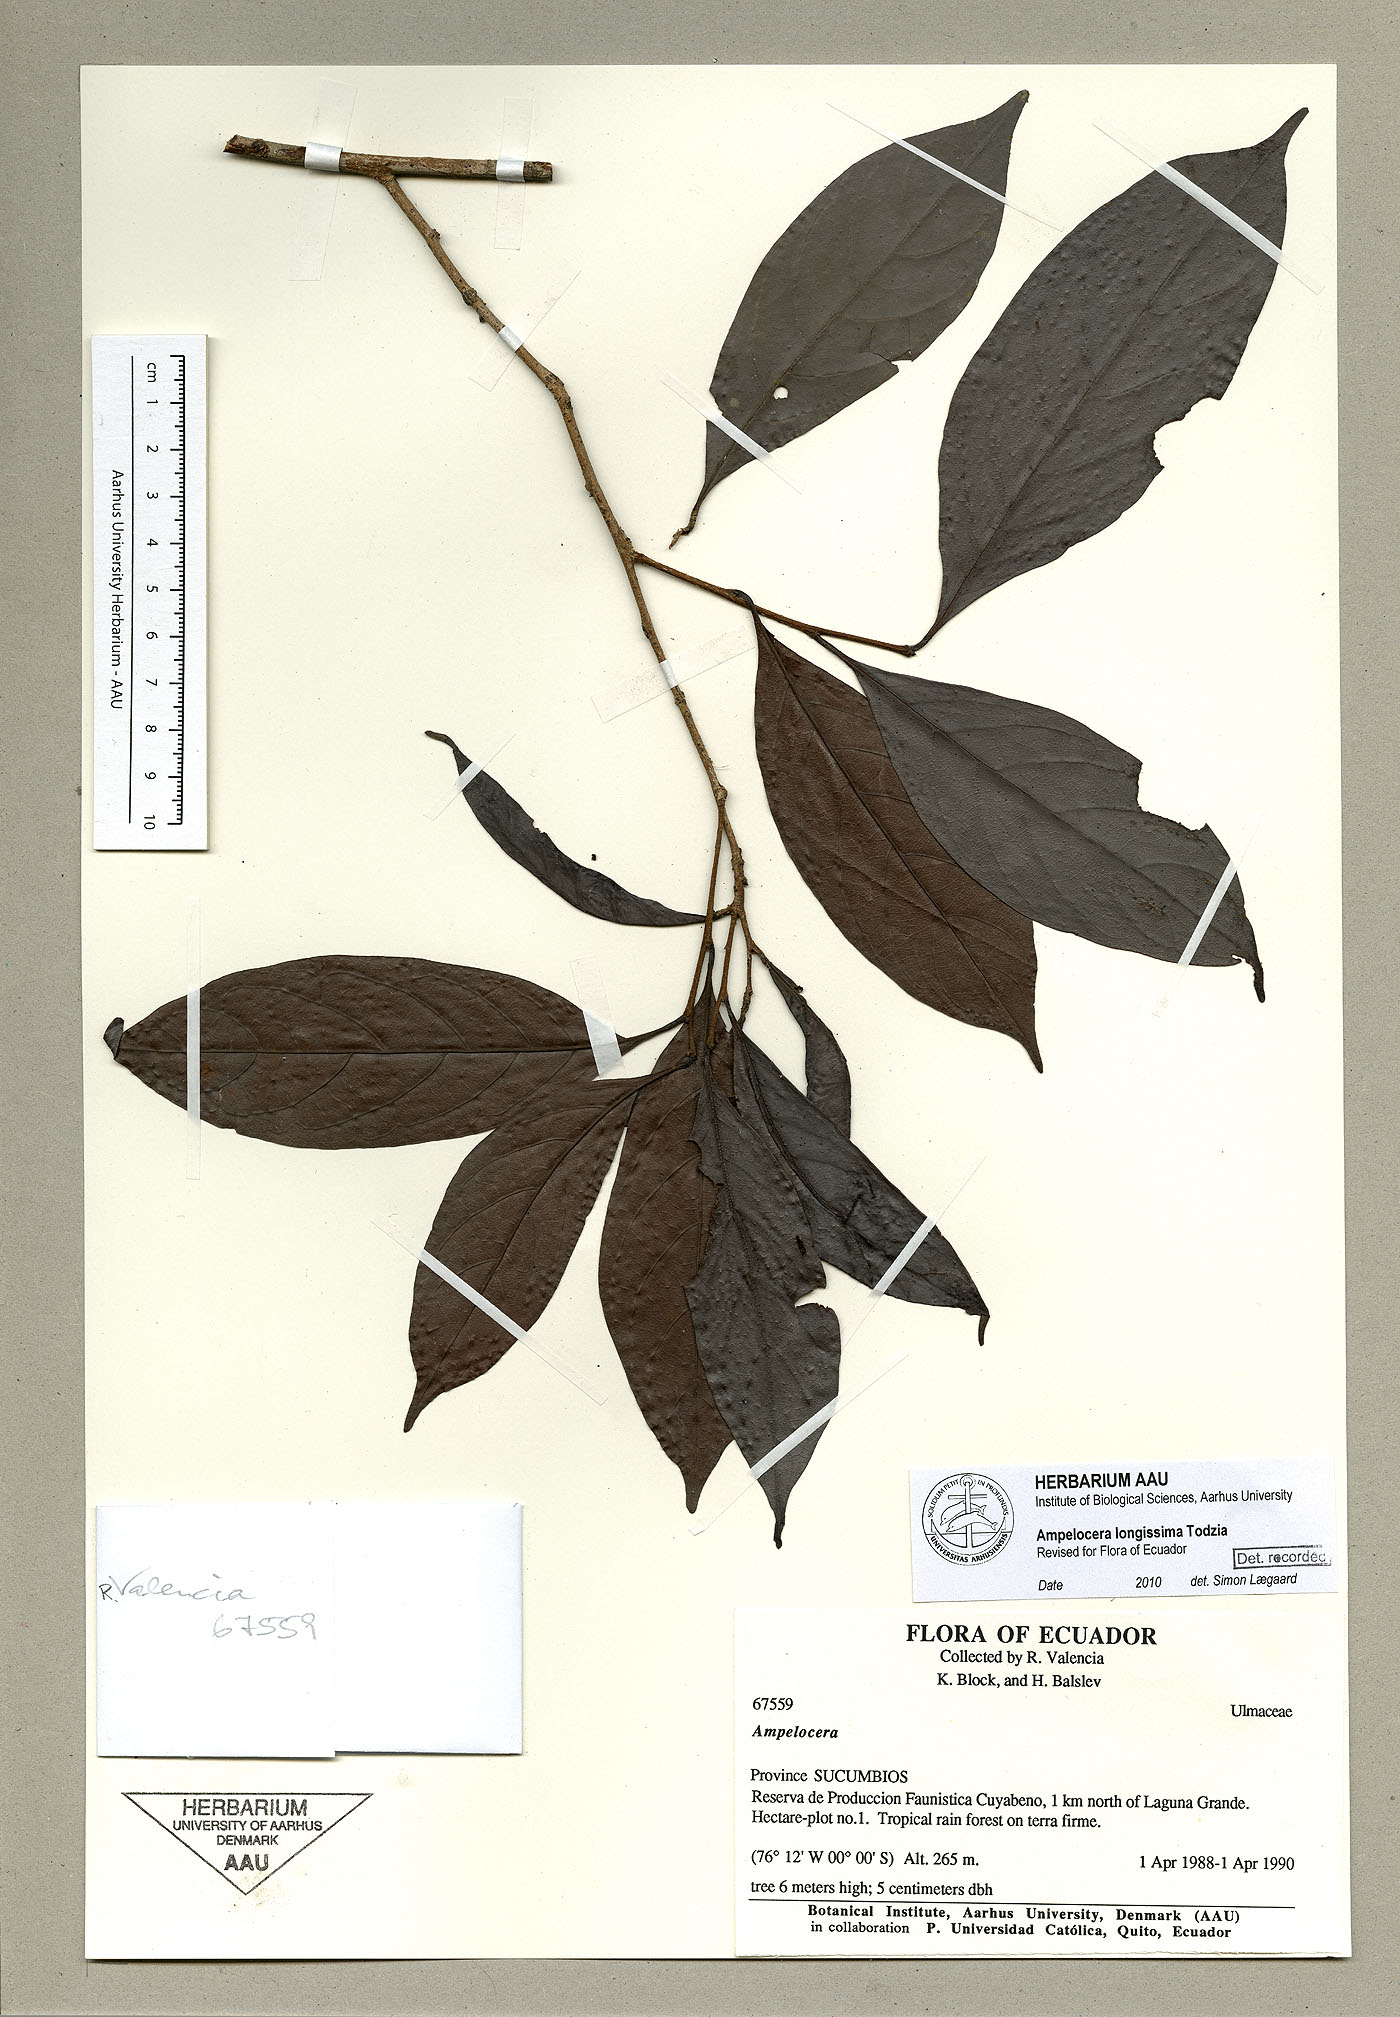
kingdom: Plantae
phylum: Tracheophyta
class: Magnoliopsida
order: Rosales
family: Cannabaceae
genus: Ampelocera
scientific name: Ampelocera longissima
